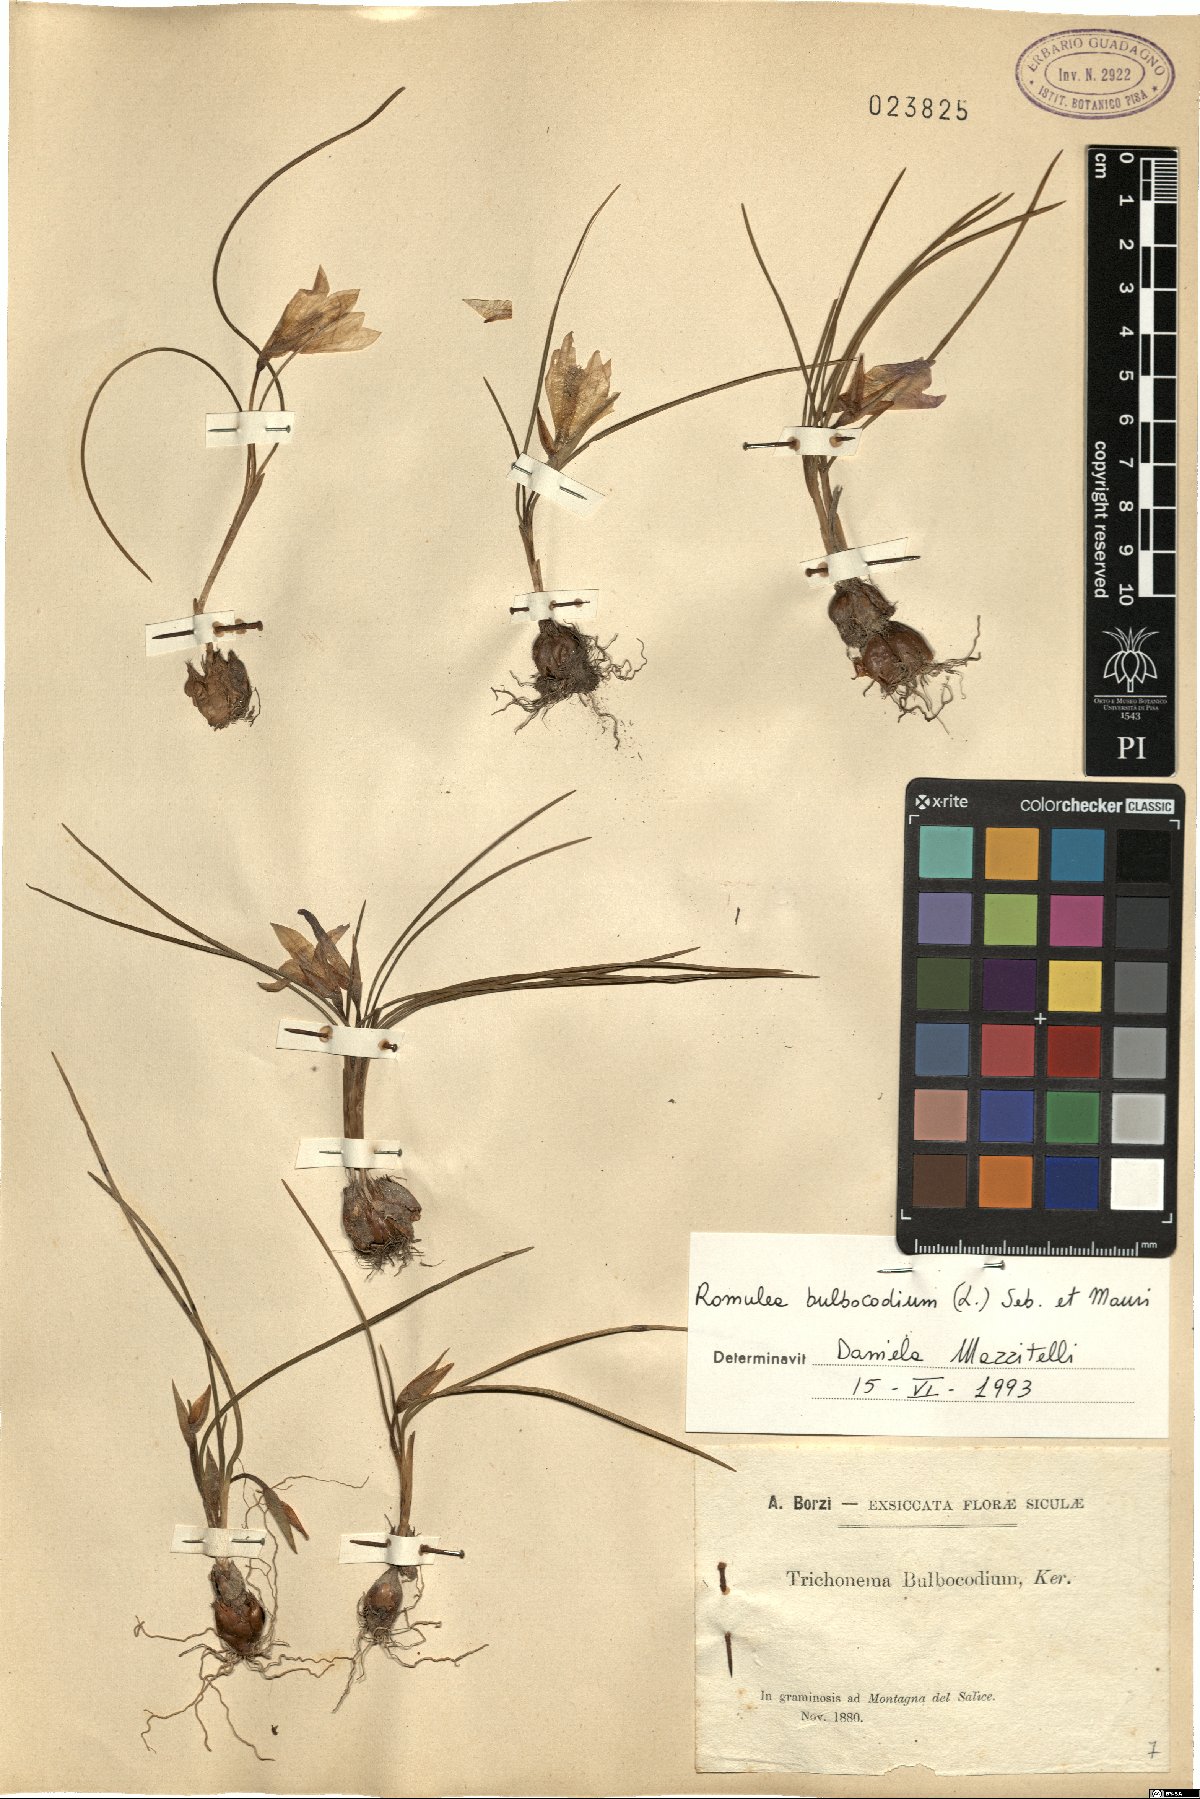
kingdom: Plantae
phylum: Tracheophyta
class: Liliopsida
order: Asparagales
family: Iridaceae
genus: Romulea
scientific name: Romulea bulbocodium
